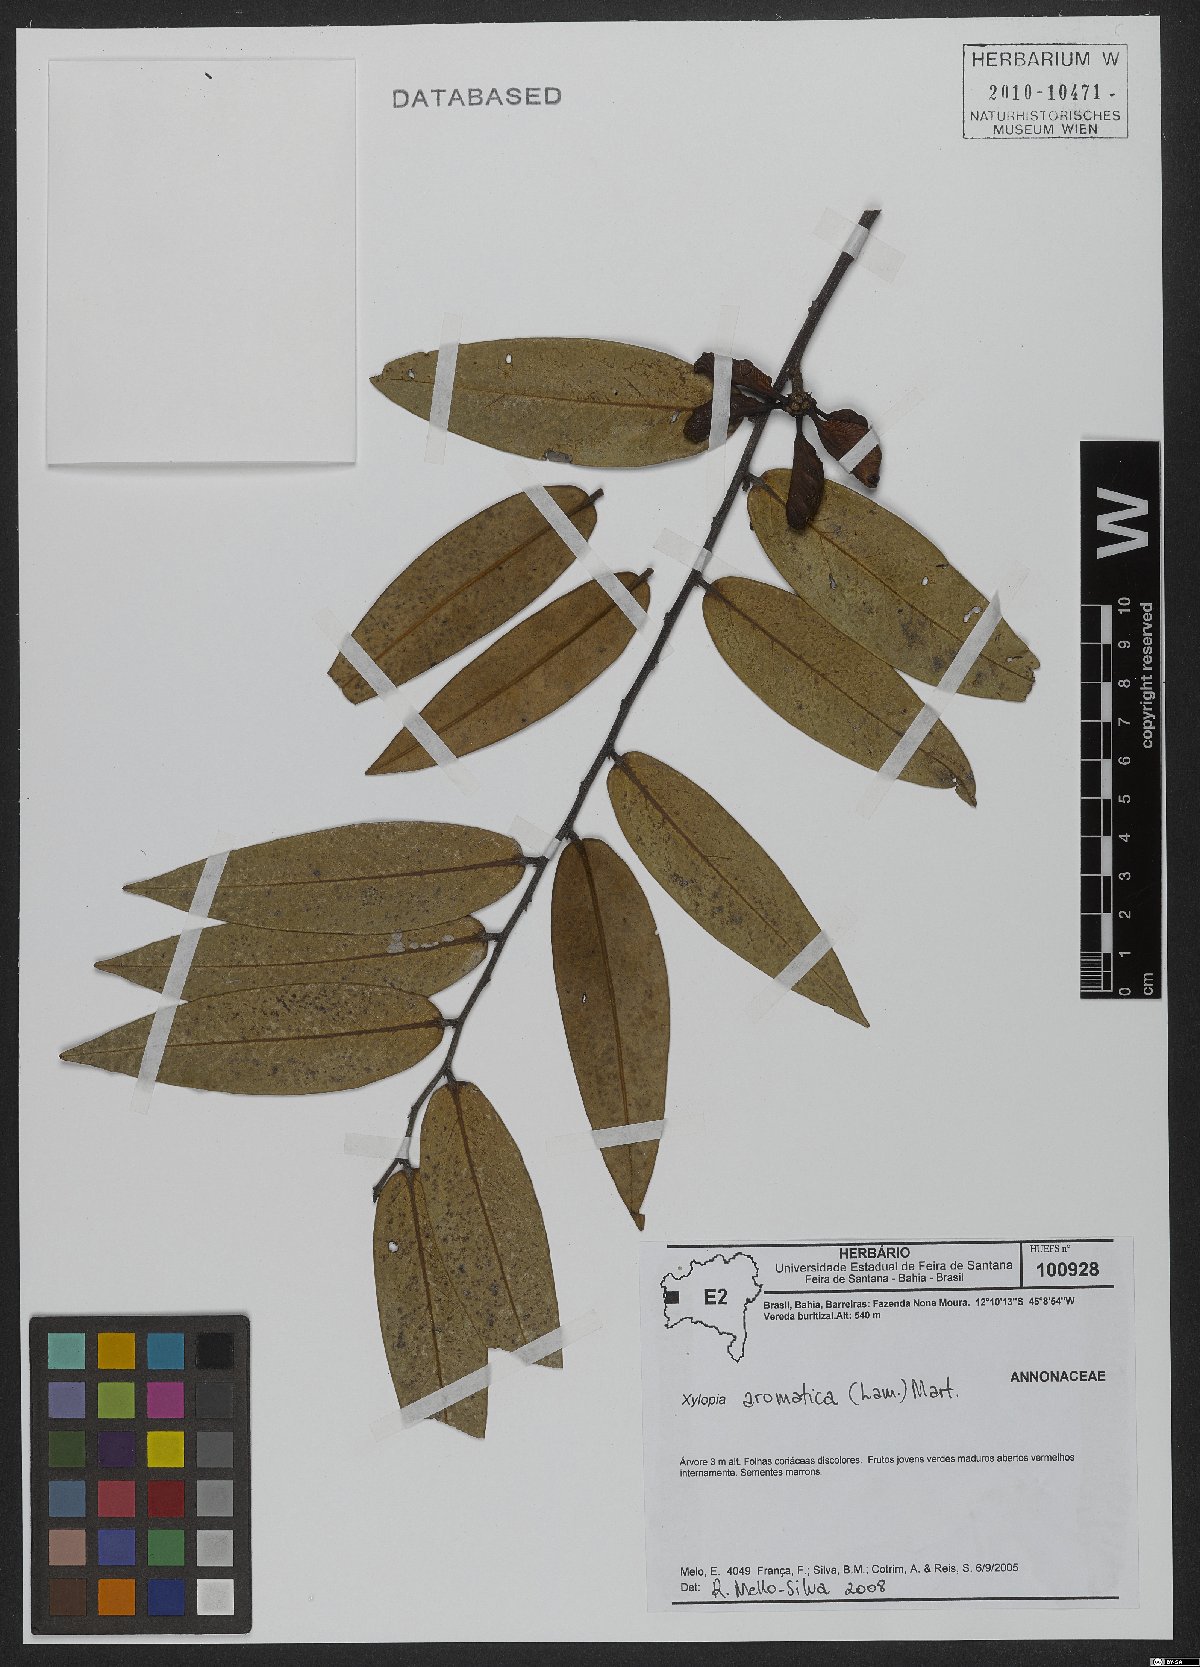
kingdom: Plantae
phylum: Tracheophyta
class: Magnoliopsida
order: Magnoliales
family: Annonaceae
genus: Xylopia
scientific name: Xylopia aromatica
